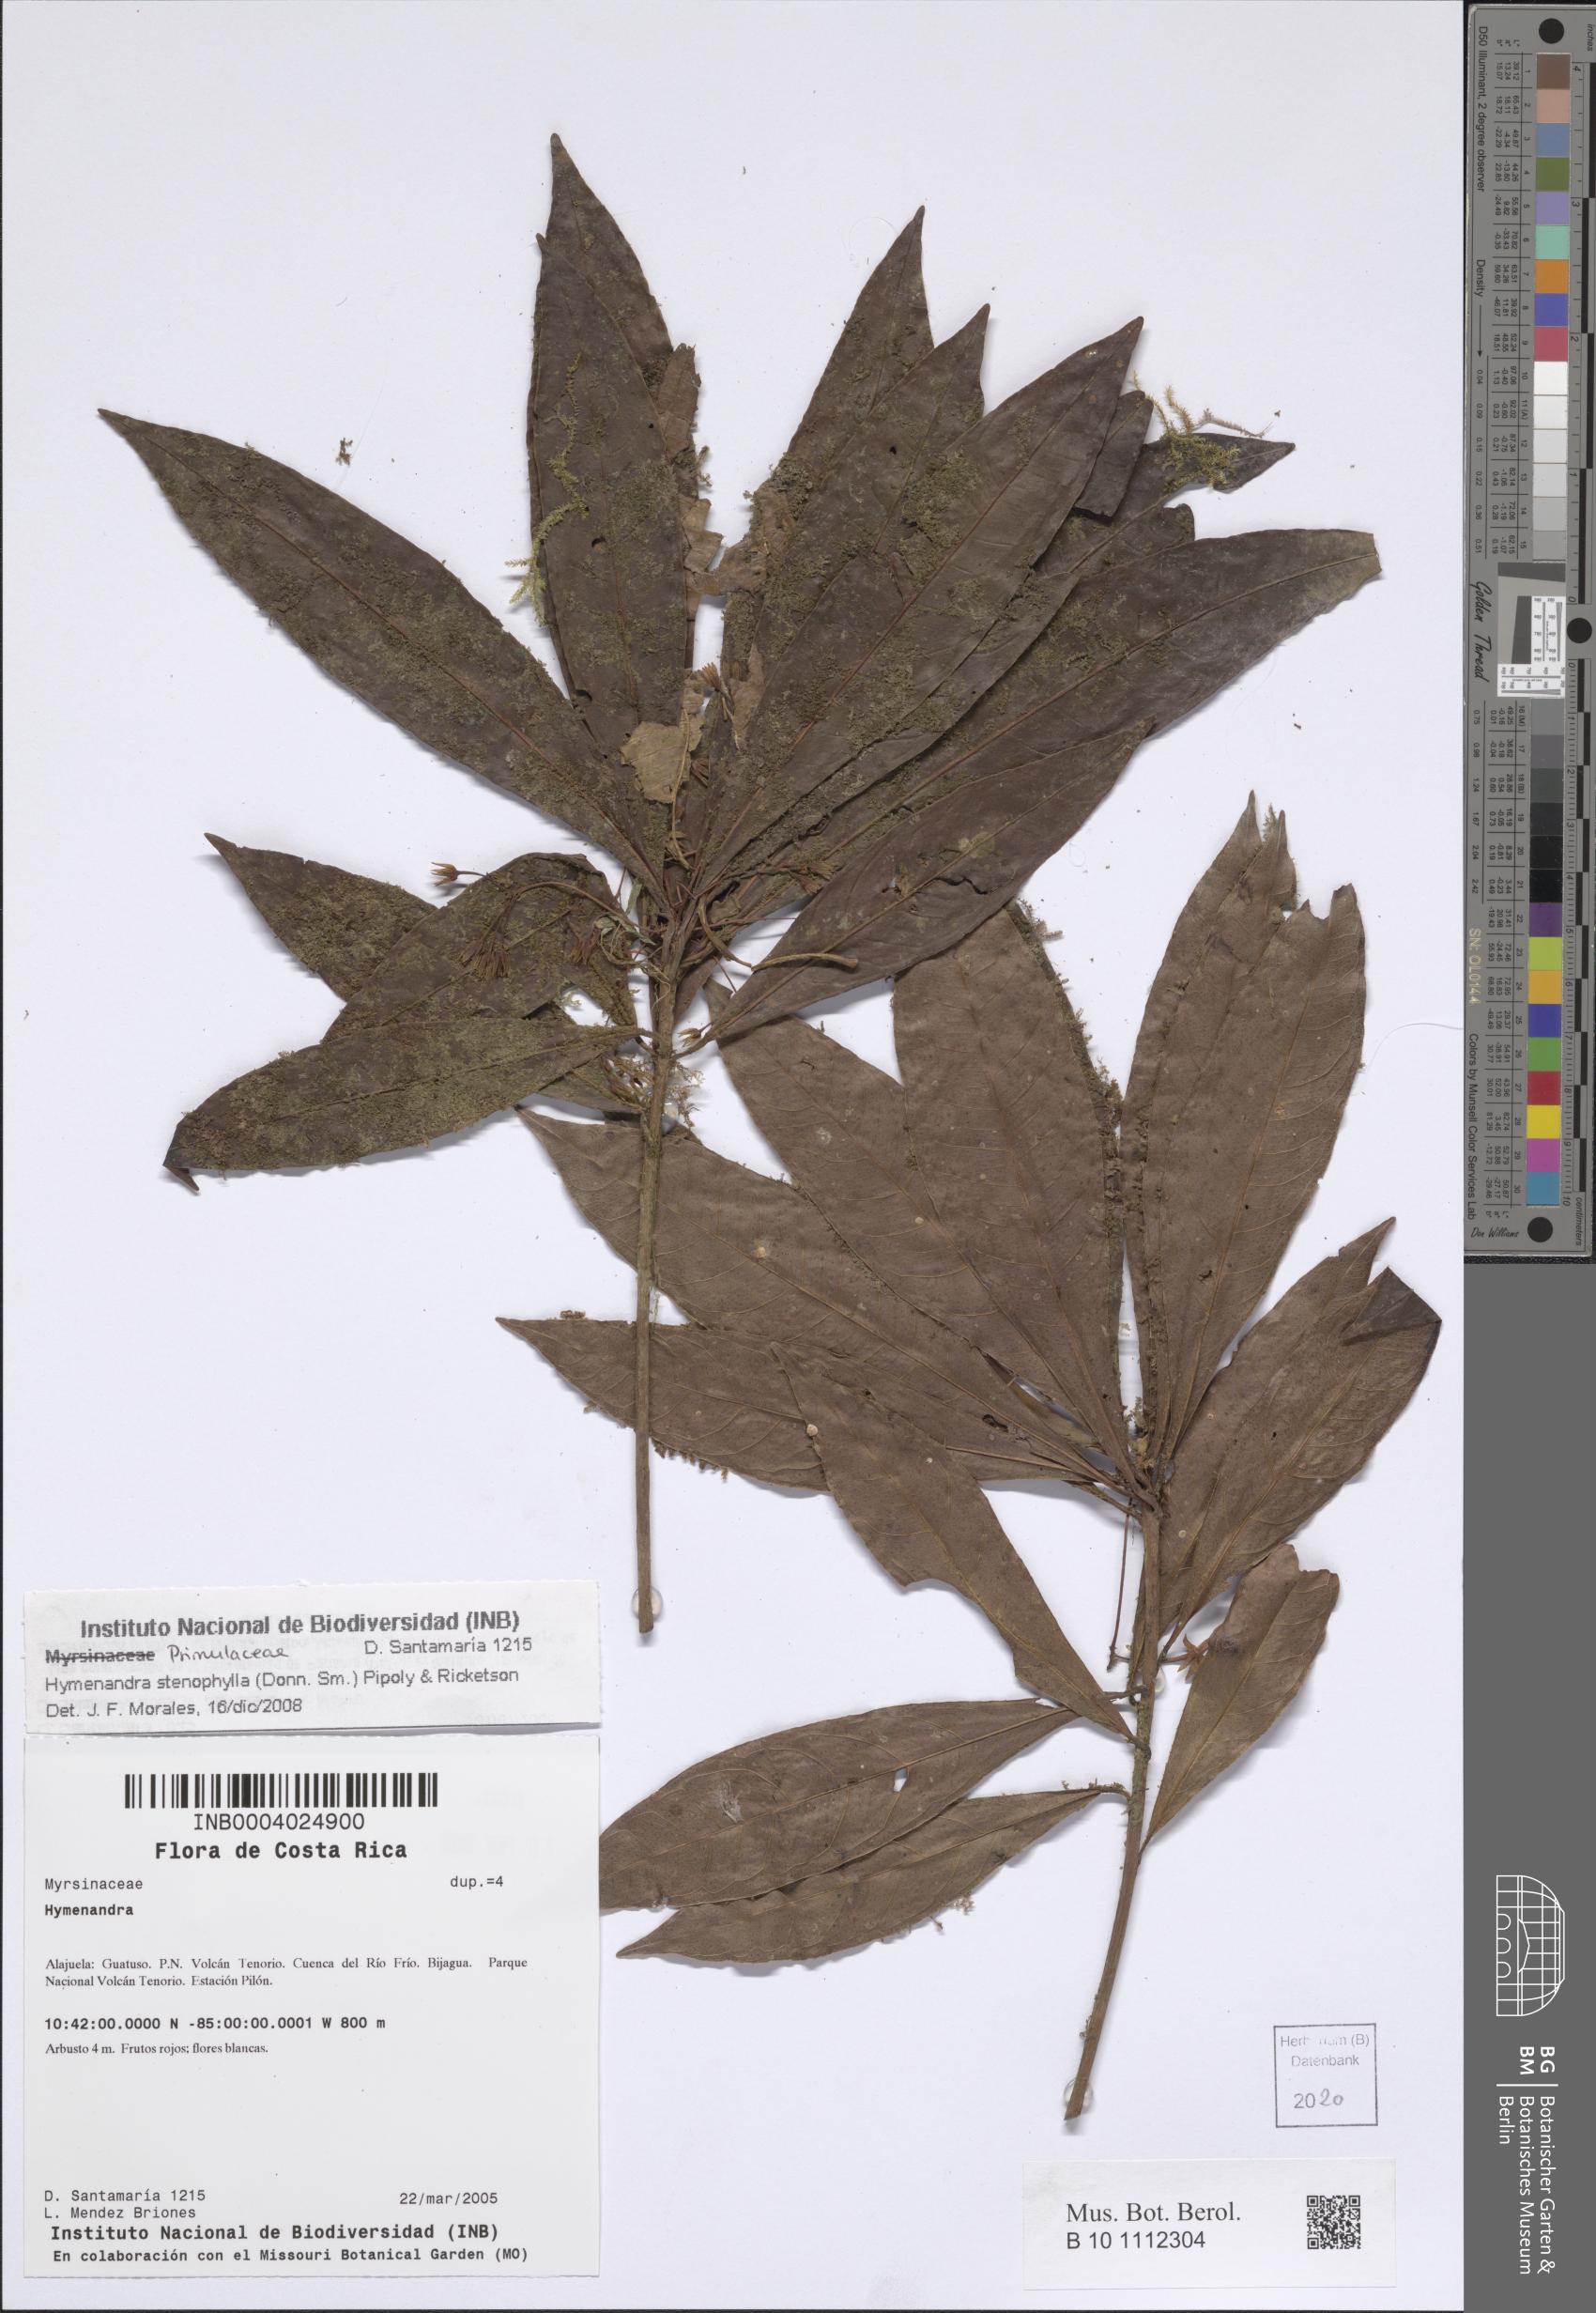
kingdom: Plantae
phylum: Tracheophyta
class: Magnoliopsida
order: Ericales
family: Primulaceae
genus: Hymenandra
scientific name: Hymenandra stenophylla
